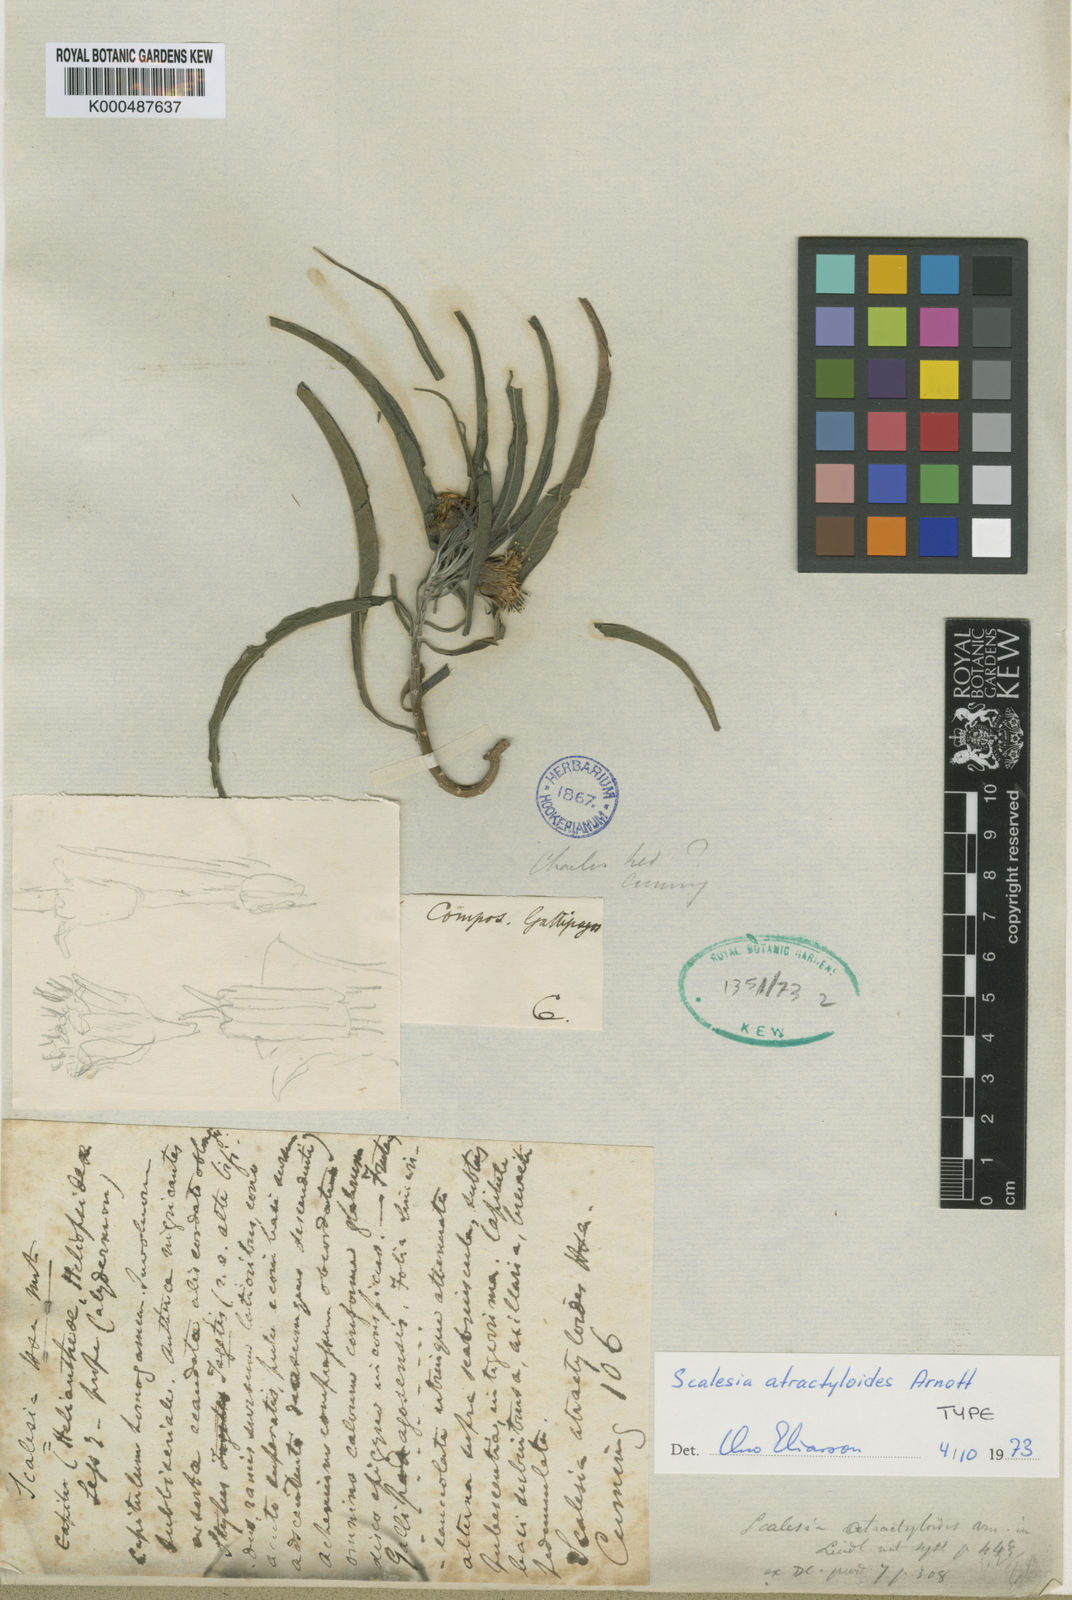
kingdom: Plantae
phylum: Tracheophyta
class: Magnoliopsida
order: Asterales
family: Asteraceae
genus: Scalesia
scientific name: Scalesia atractyloides
